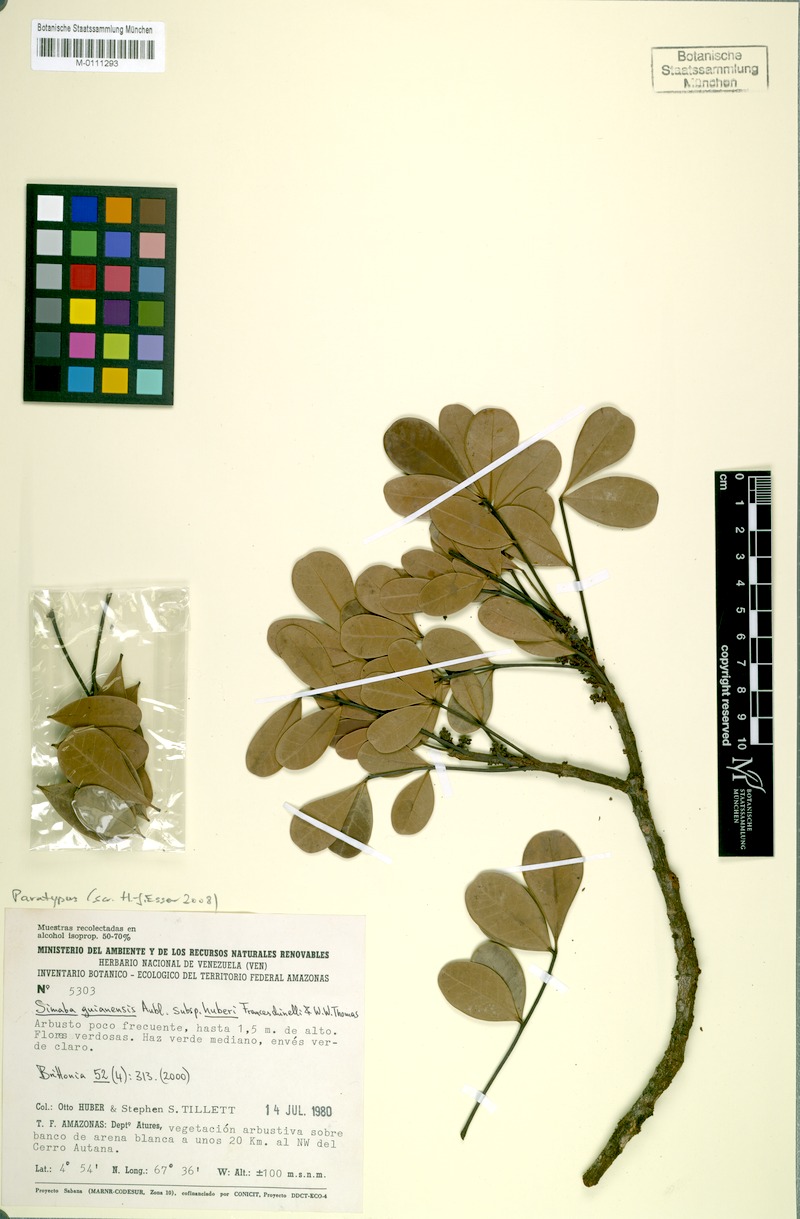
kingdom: Plantae
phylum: Tracheophyta
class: Magnoliopsida
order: Sapindales
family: Simaroubaceae
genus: Simaba
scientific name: Simaba guianensis
